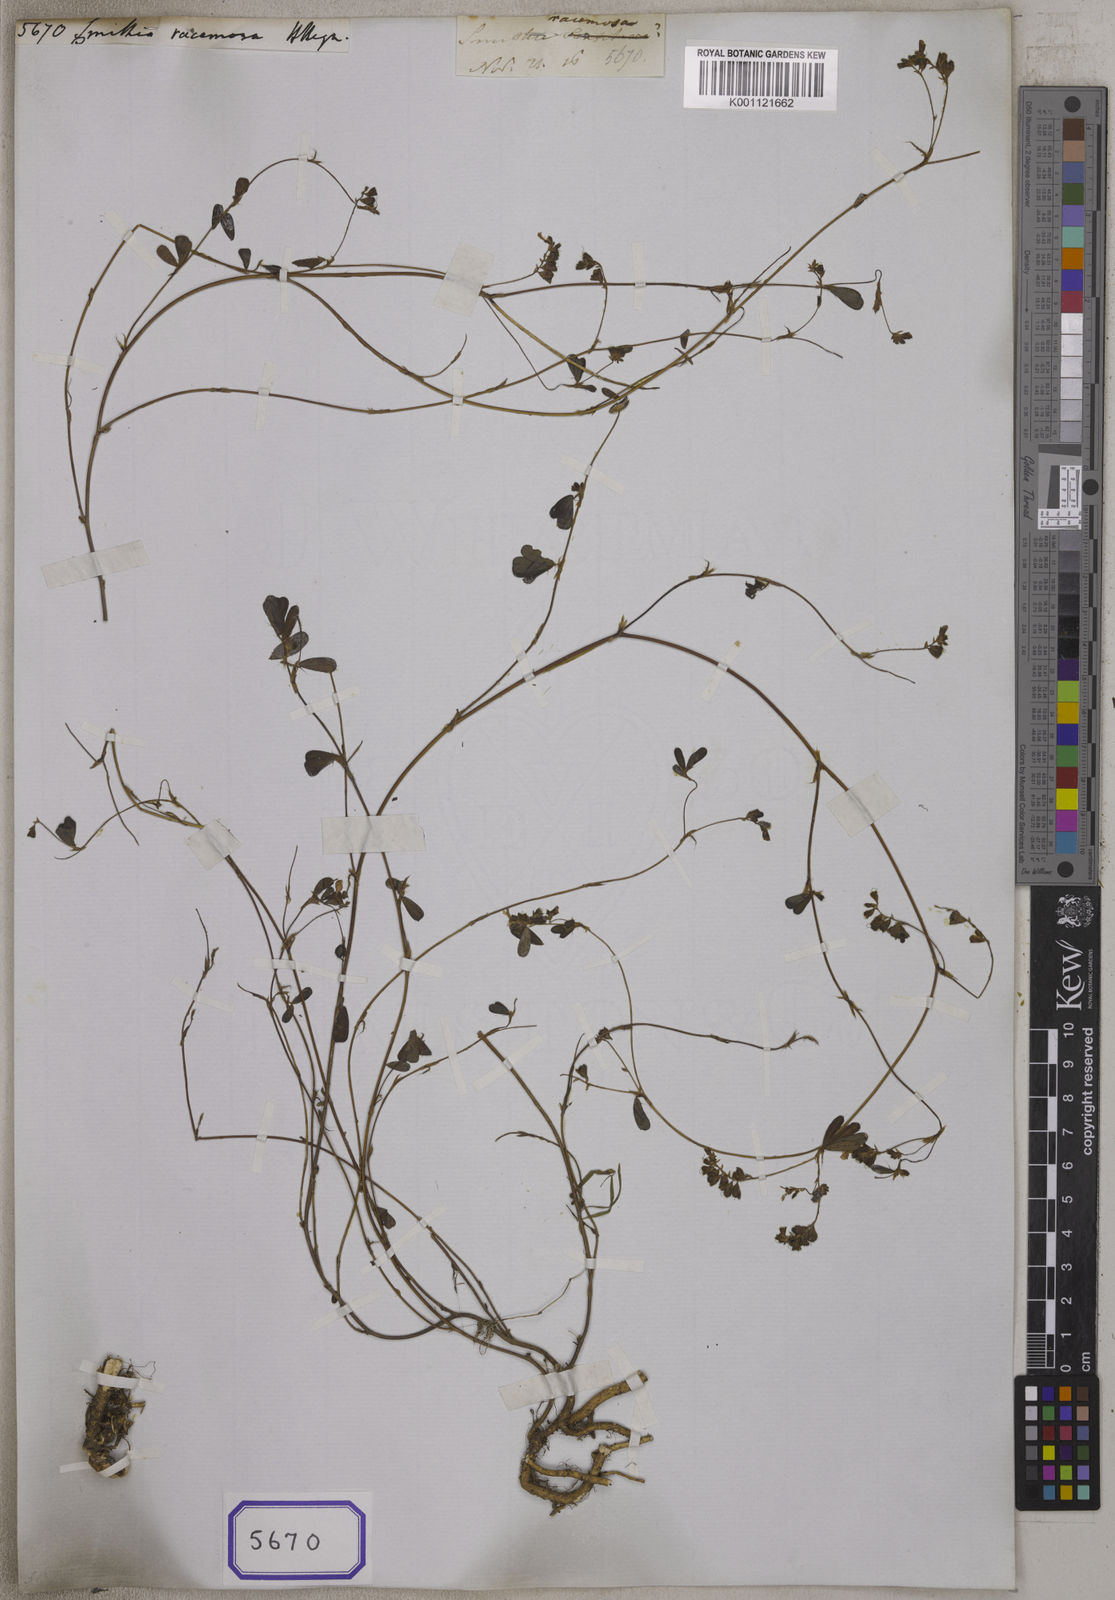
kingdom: Plantae
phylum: Tracheophyta
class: Magnoliopsida
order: Fabales
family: Fabaceae
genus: Smithia
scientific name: Smithia
